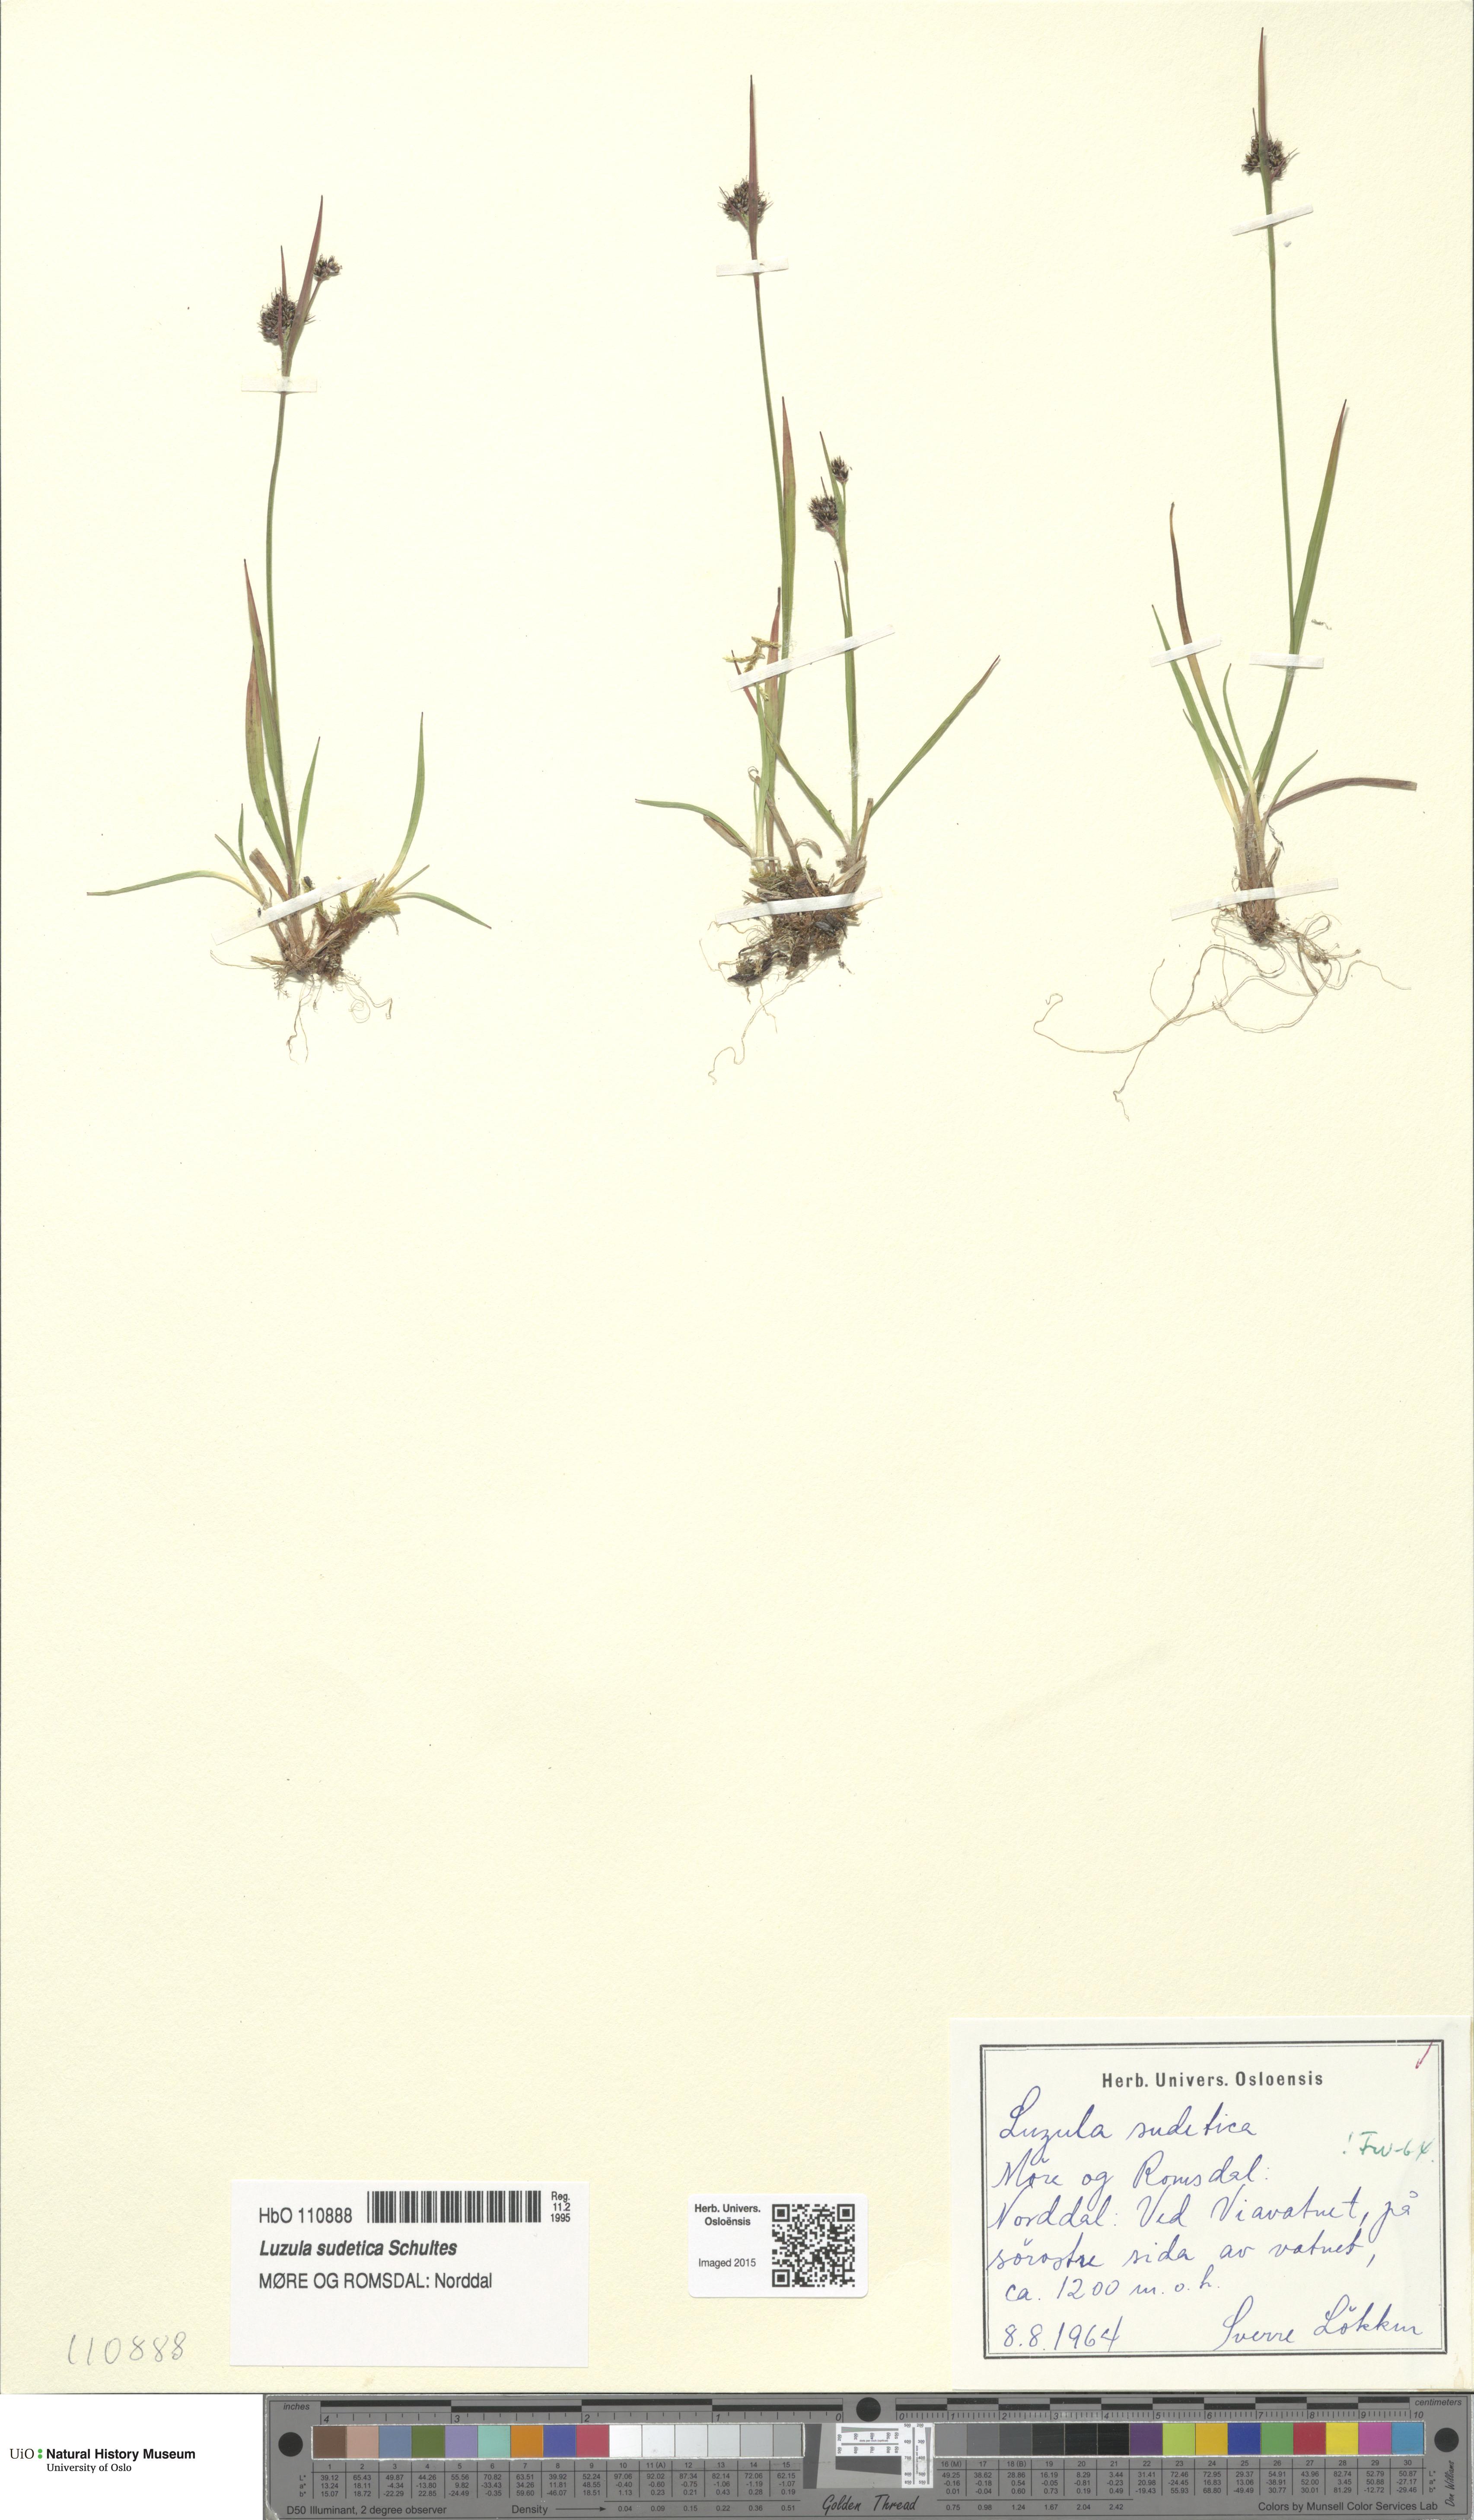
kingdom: Plantae
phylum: Tracheophyta
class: Liliopsida
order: Poales
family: Juncaceae
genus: Luzula
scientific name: Luzula sudetica
